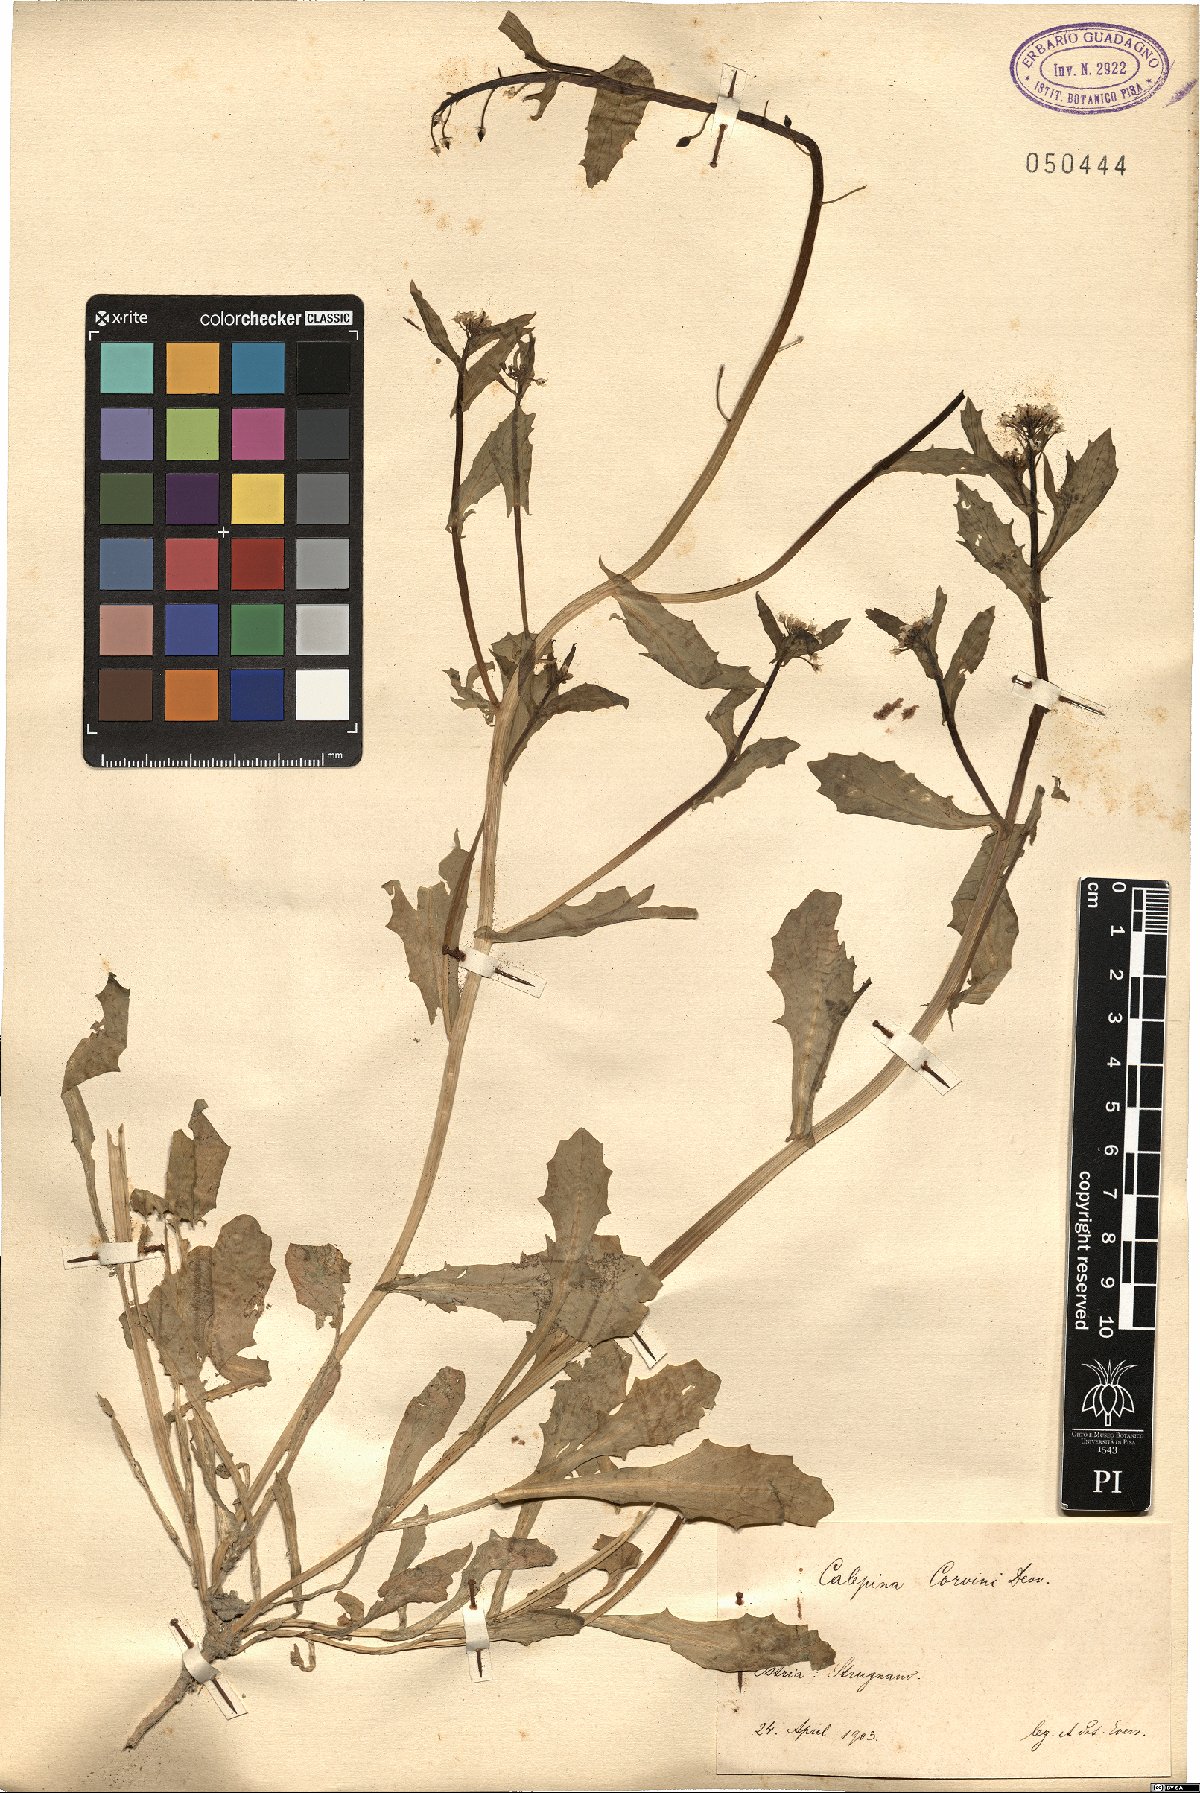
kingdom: Plantae
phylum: Tracheophyta
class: Magnoliopsida
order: Brassicales
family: Brassicaceae
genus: Calepina
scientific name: Calepina irregularis
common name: White ballmustard
